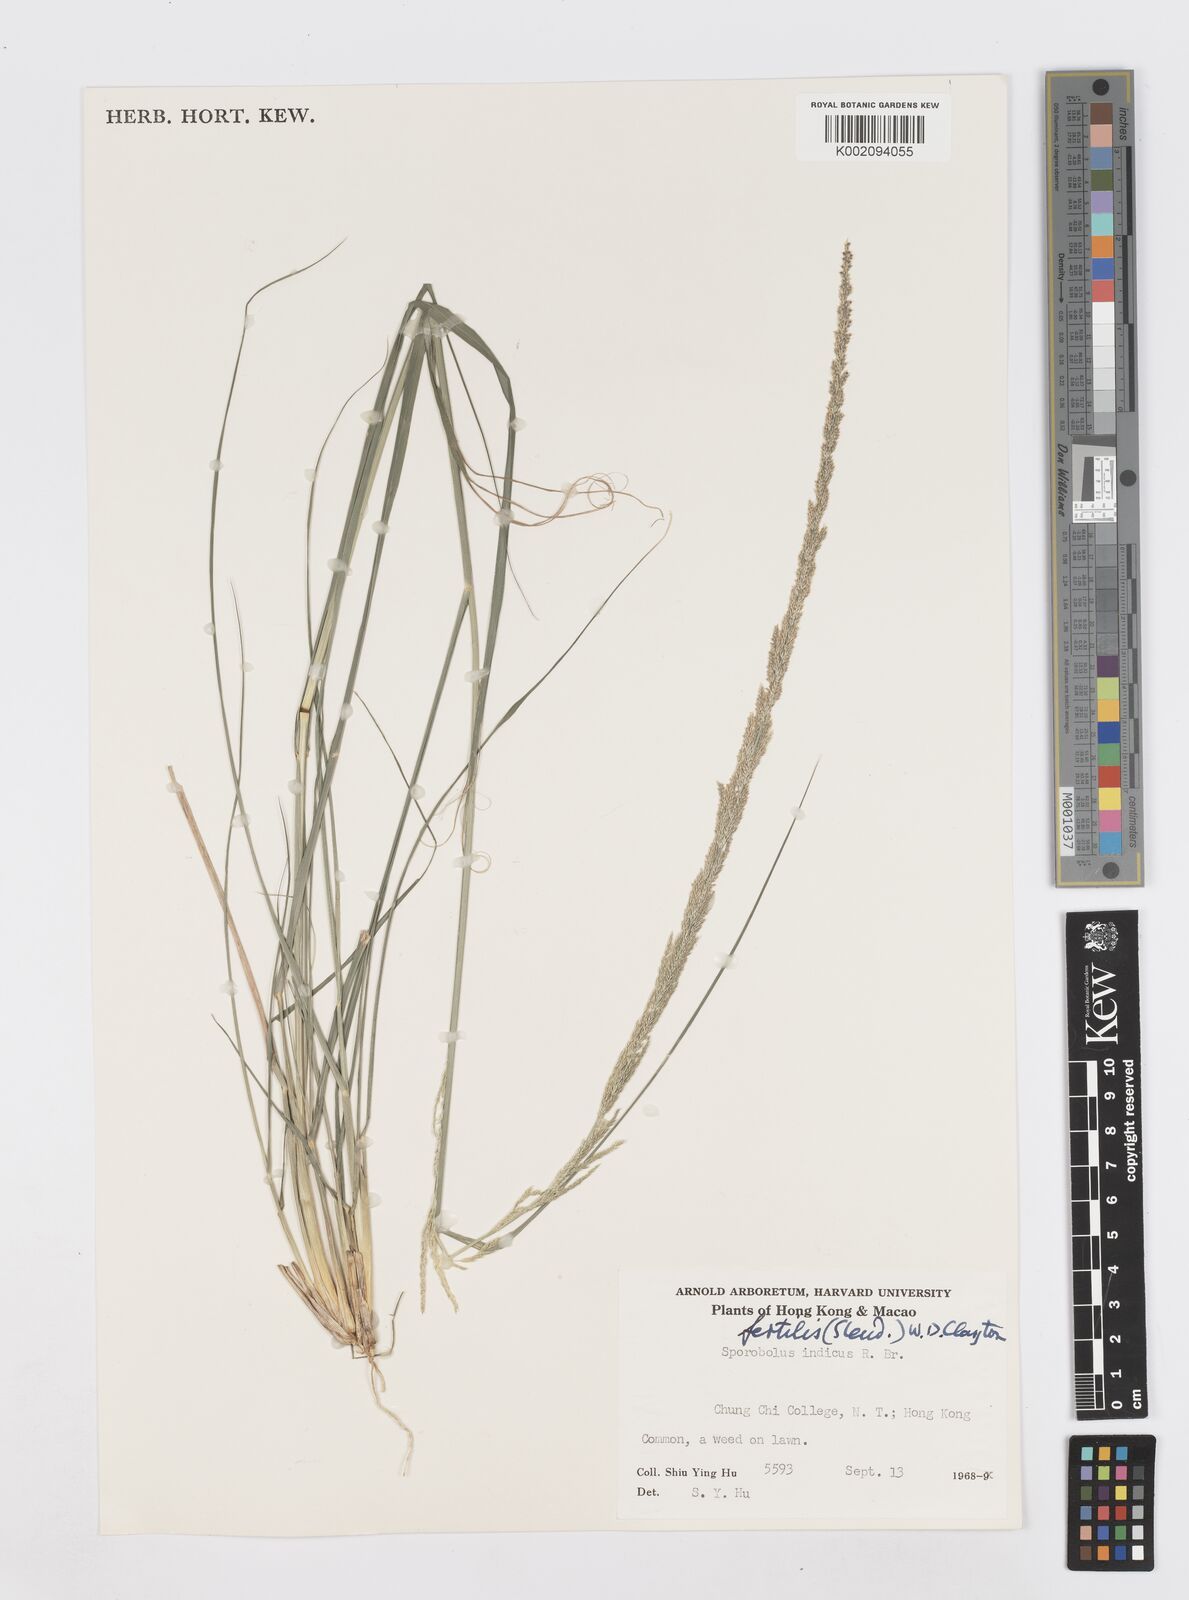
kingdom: Plantae
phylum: Tracheophyta
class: Liliopsida
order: Poales
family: Poaceae
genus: Sporobolus
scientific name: Sporobolus fertilis
